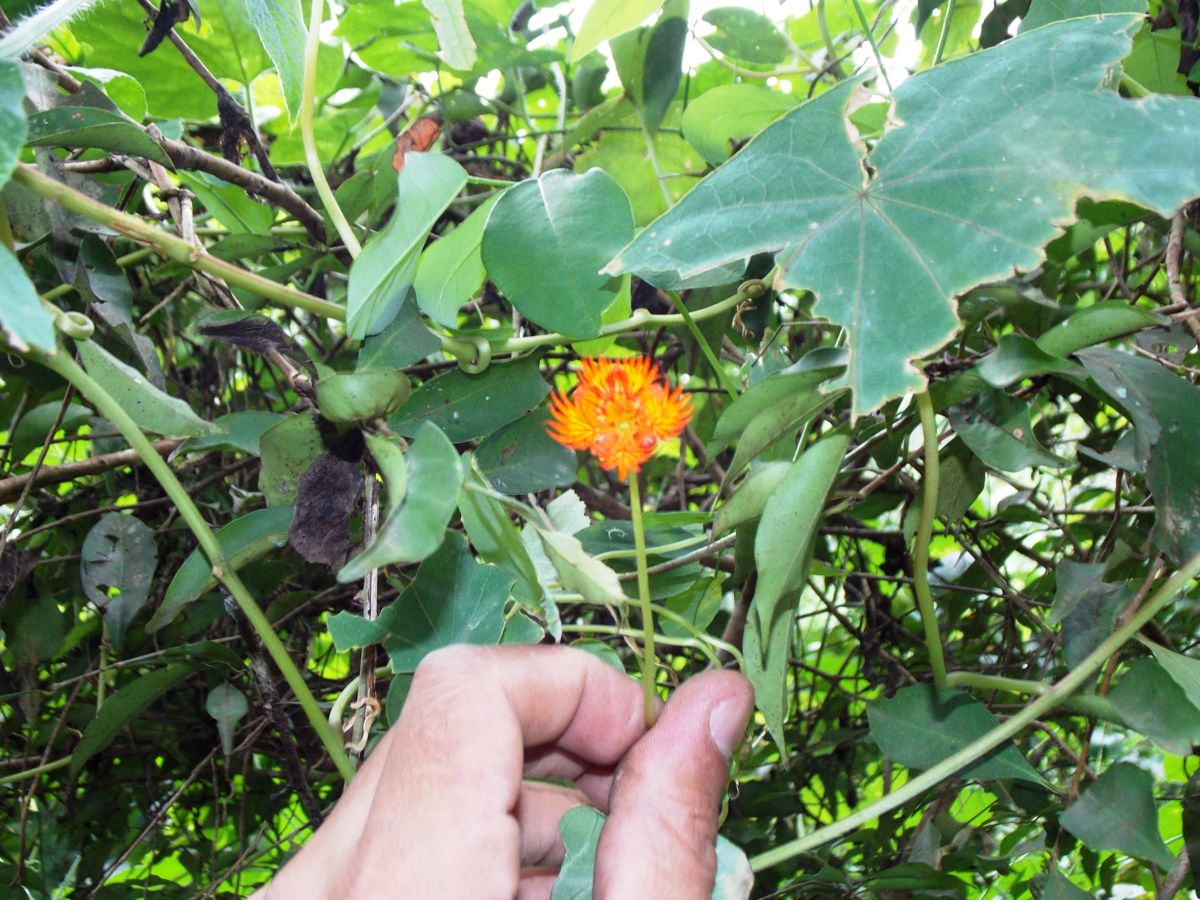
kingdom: Plantae
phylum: Tracheophyta
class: Magnoliopsida
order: Brassicales
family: Tropaeolaceae
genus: Tropaeolum
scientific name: Tropaeolum moritzianum
